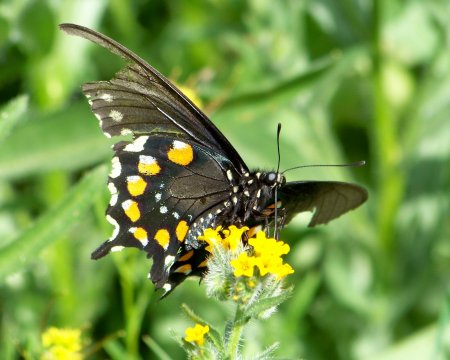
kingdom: Animalia
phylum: Arthropoda
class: Insecta
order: Lepidoptera
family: Papilionidae
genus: Battus
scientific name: Battus philenor
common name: Pipevine Swallowtail
